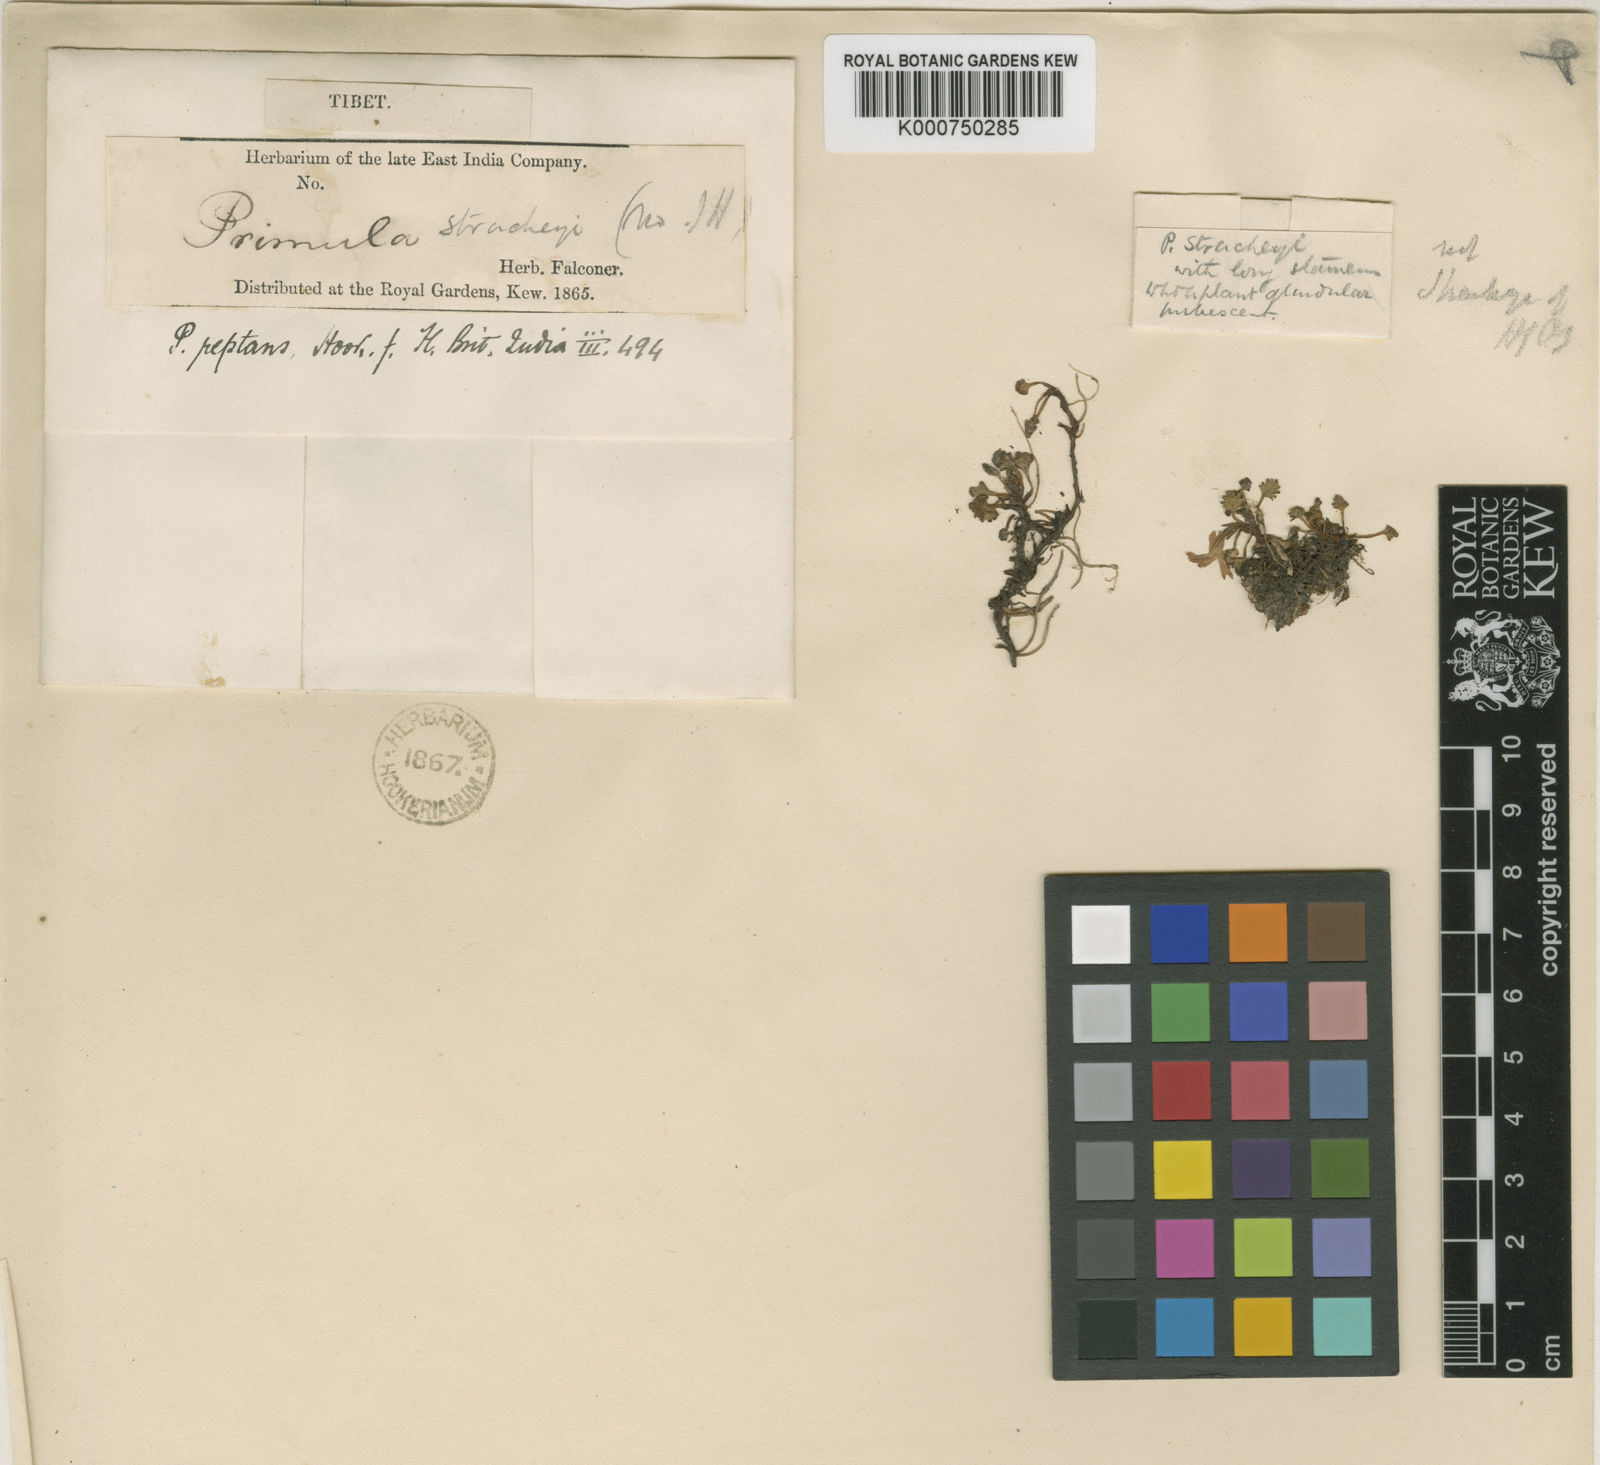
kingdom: Plantae
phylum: Tracheophyta
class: Magnoliopsida
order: Ericales
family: Primulaceae
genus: Primula
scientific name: Primula reptans
